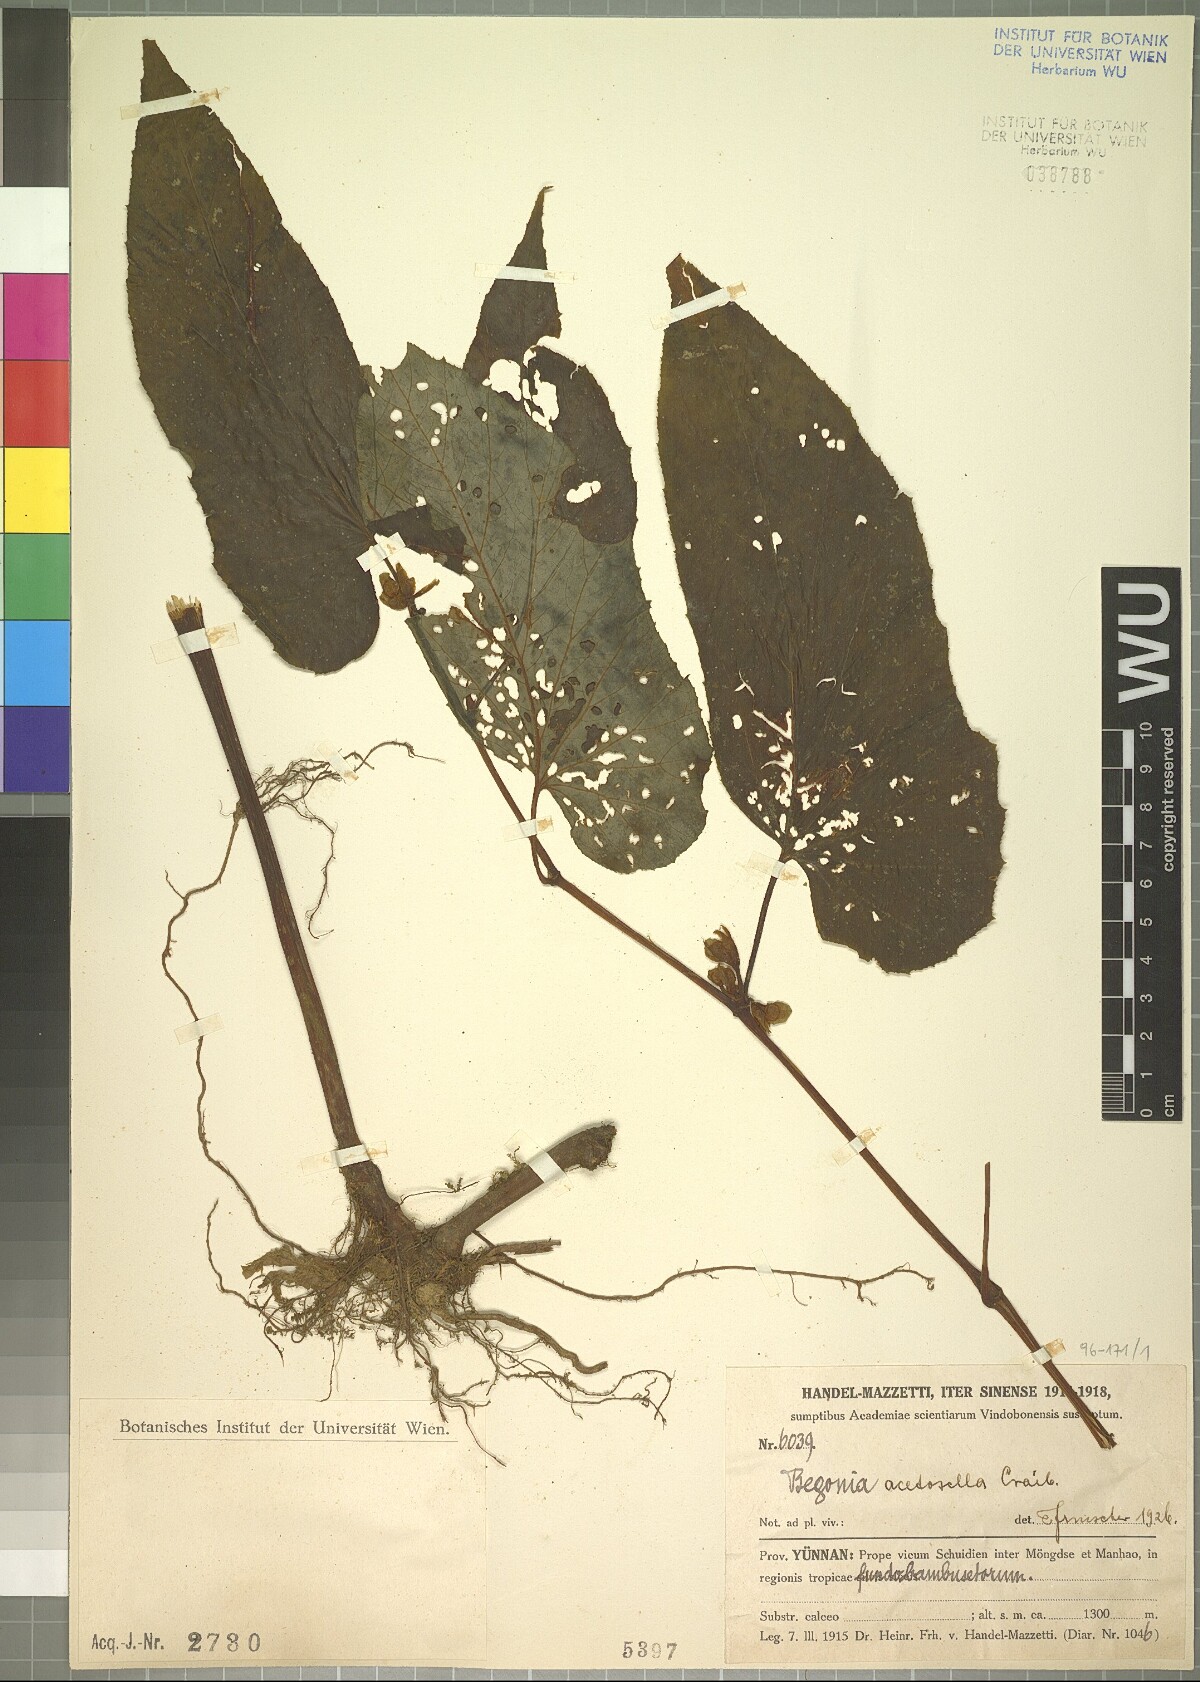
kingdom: Plantae
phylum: Tracheophyta
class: Magnoliopsida
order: Cucurbitales
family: Begoniaceae
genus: Begonia
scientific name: Begonia acetosella
